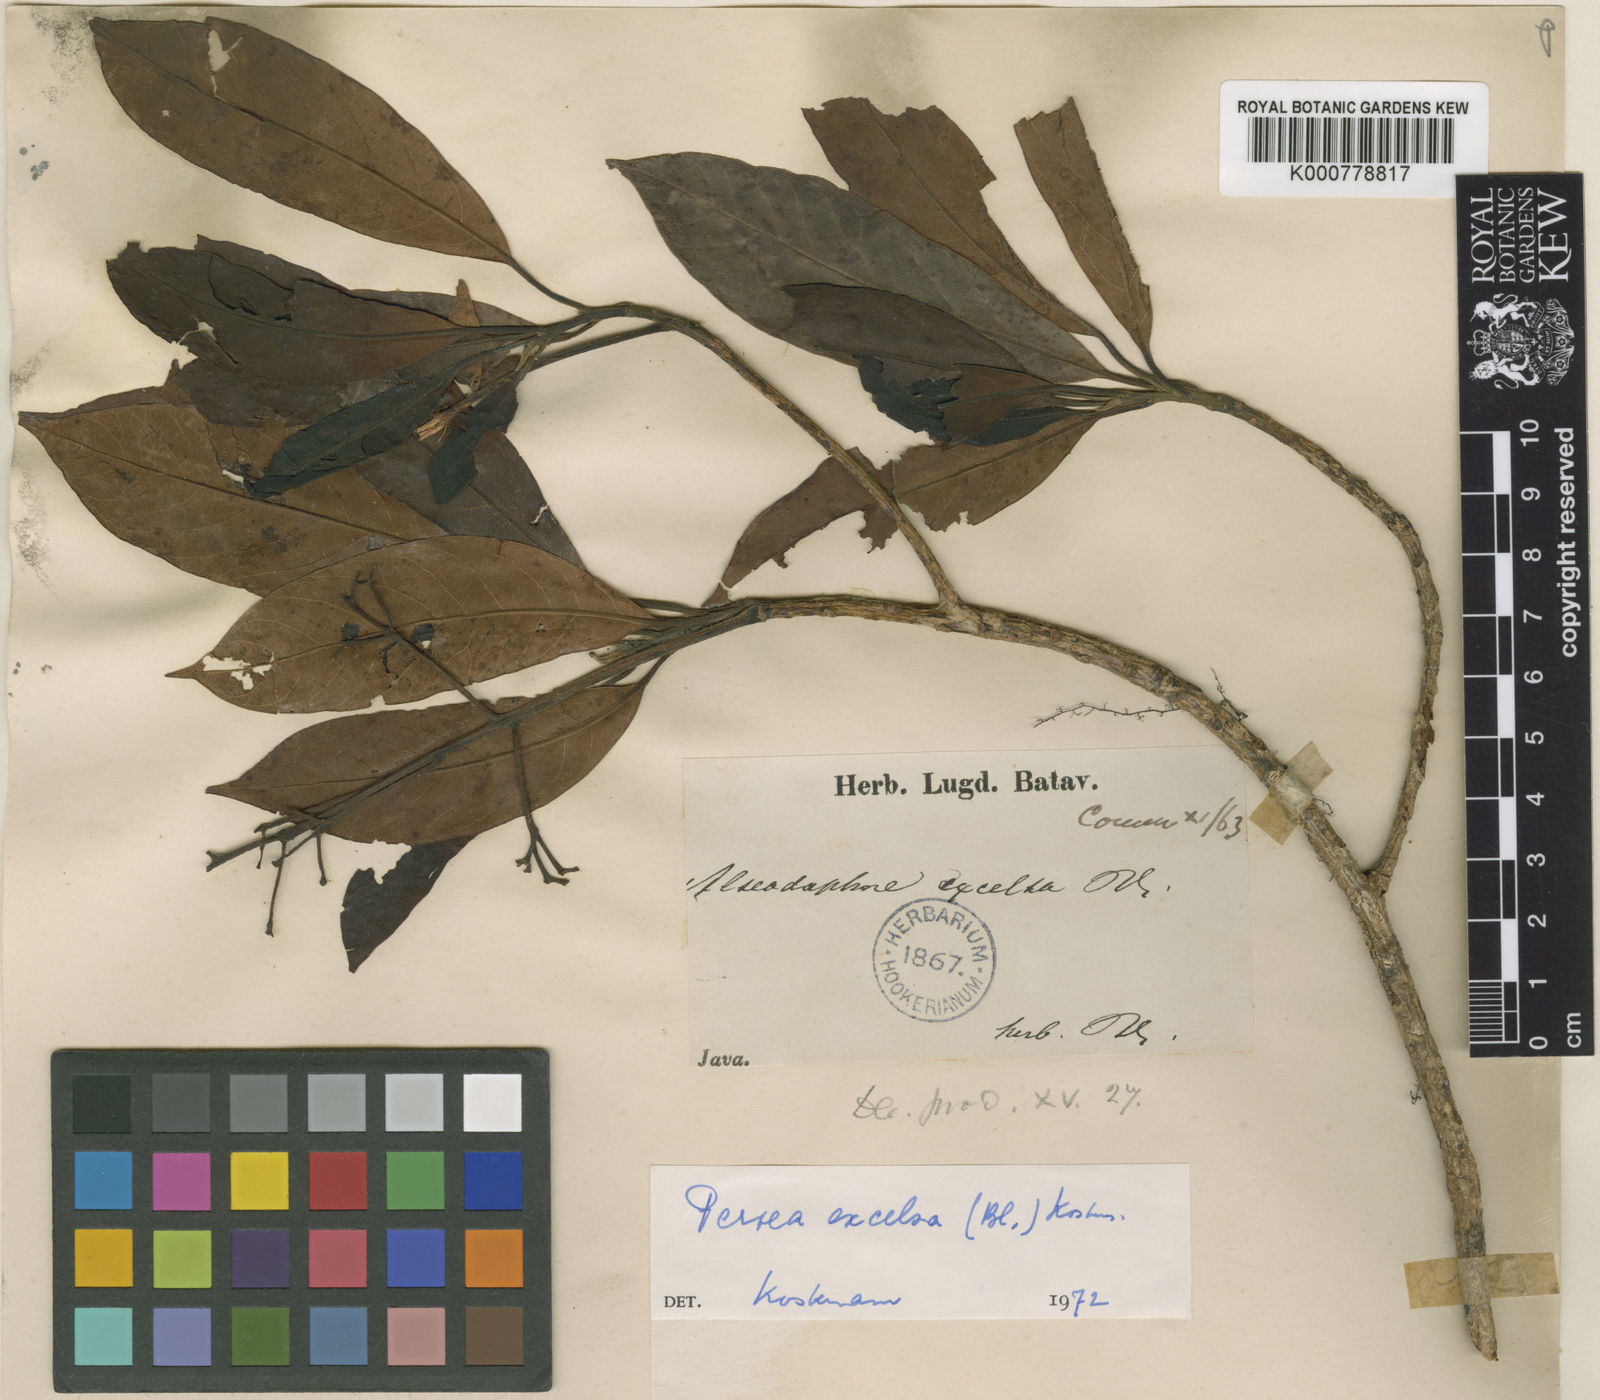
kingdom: Plantae
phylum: Tracheophyta
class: Magnoliopsida
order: Laurales
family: Lauraceae
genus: Phoebe
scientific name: Phoebe excelsa
